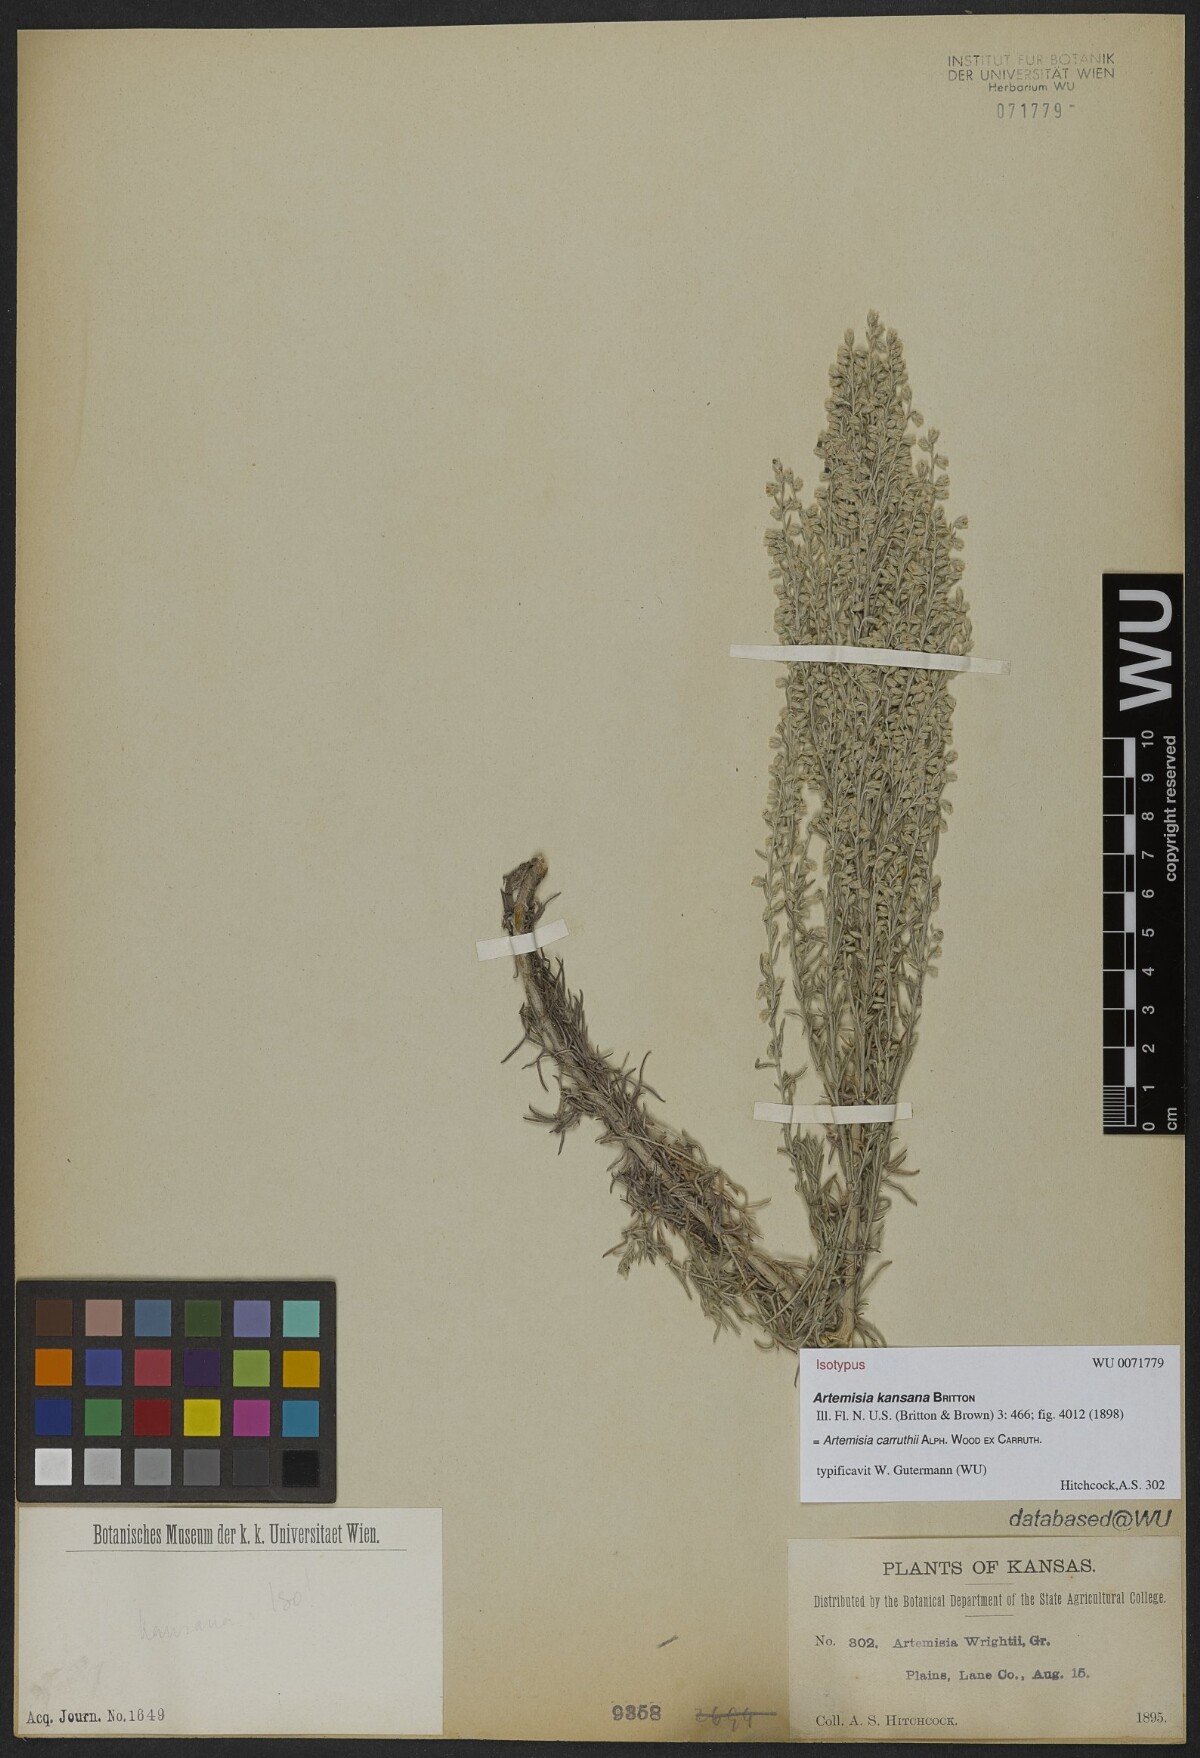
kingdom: Plantae
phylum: Tracheophyta
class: Magnoliopsida
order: Asterales
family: Asteraceae
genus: Artemisia
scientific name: Artemisia carruthii
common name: Carruth wormwood
